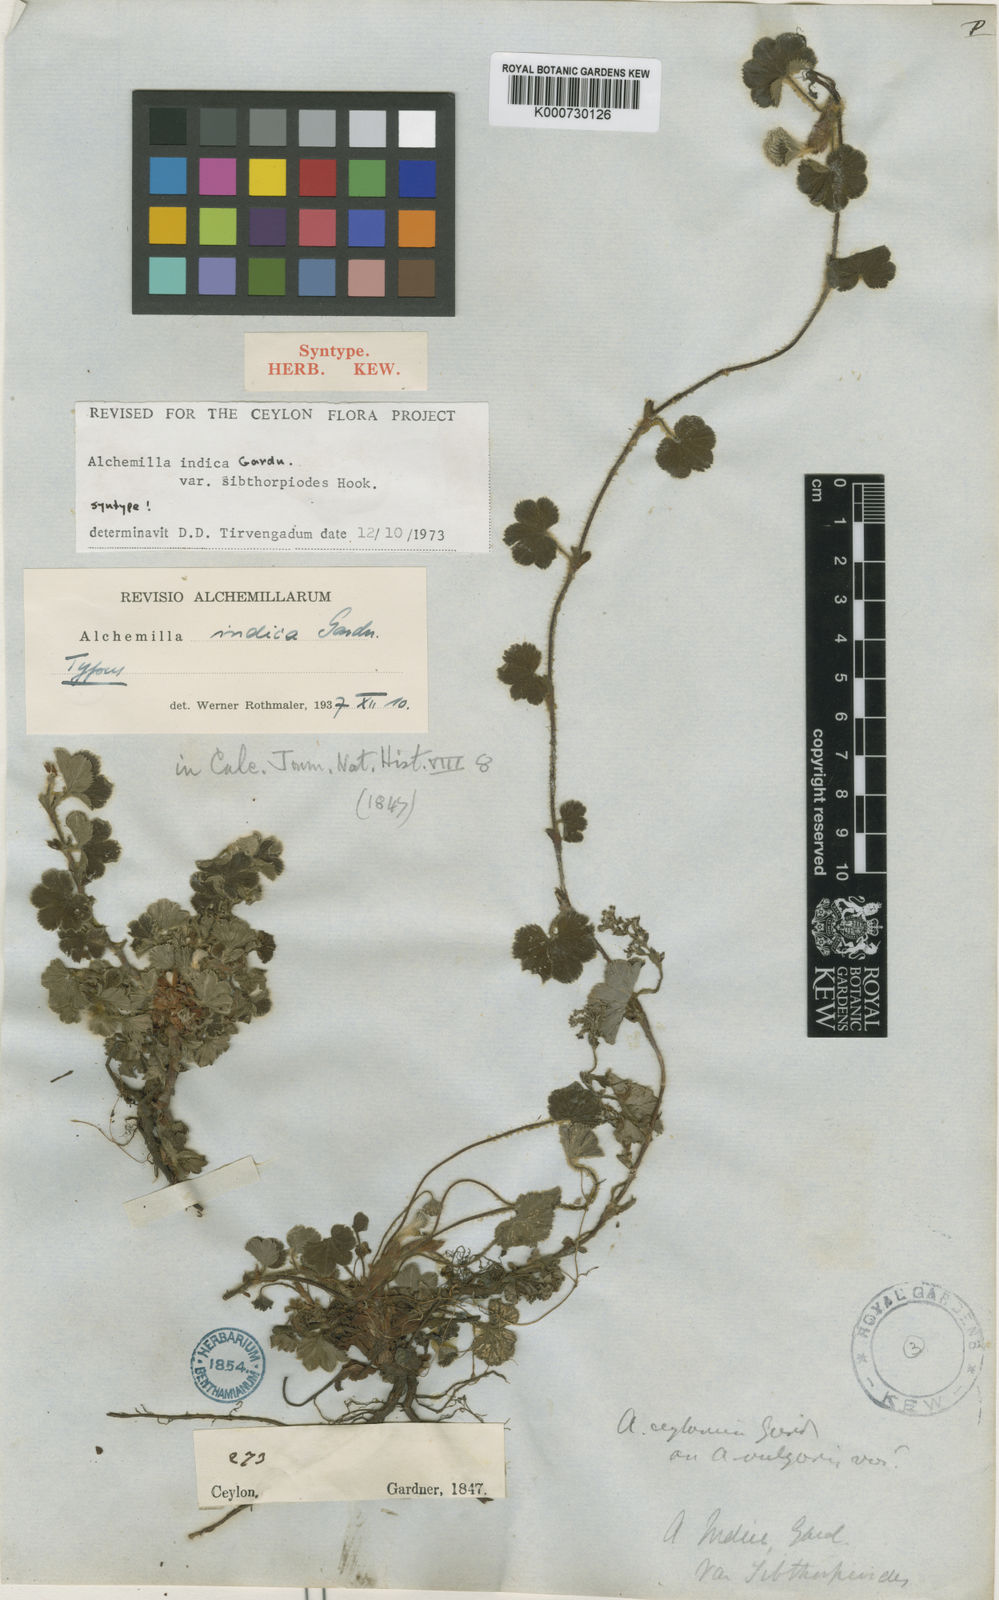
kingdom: Plantae
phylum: Tracheophyta
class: Magnoliopsida
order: Rosales
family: Rosaceae
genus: Alchemilla
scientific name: Alchemilla sibthorpioides
